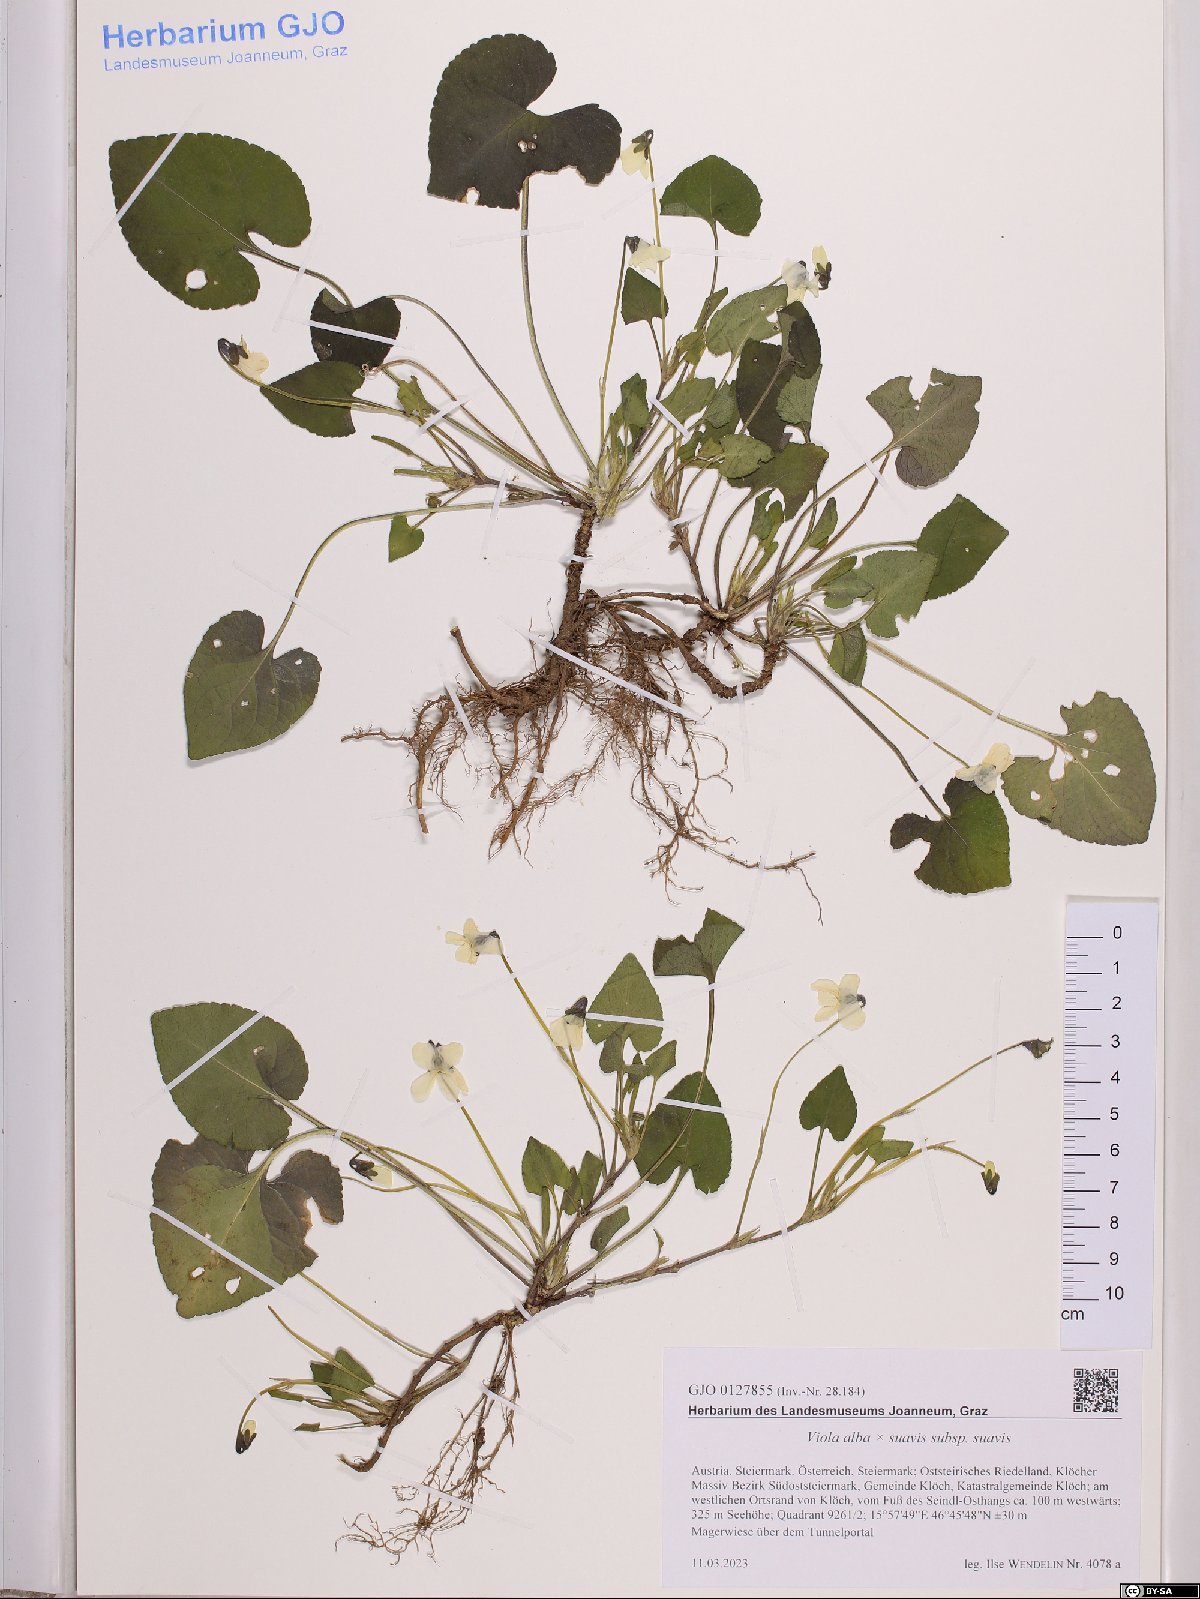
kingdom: Plantae
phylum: Tracheophyta
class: Magnoliopsida
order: Malpighiales
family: Violaceae
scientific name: Violaceae
